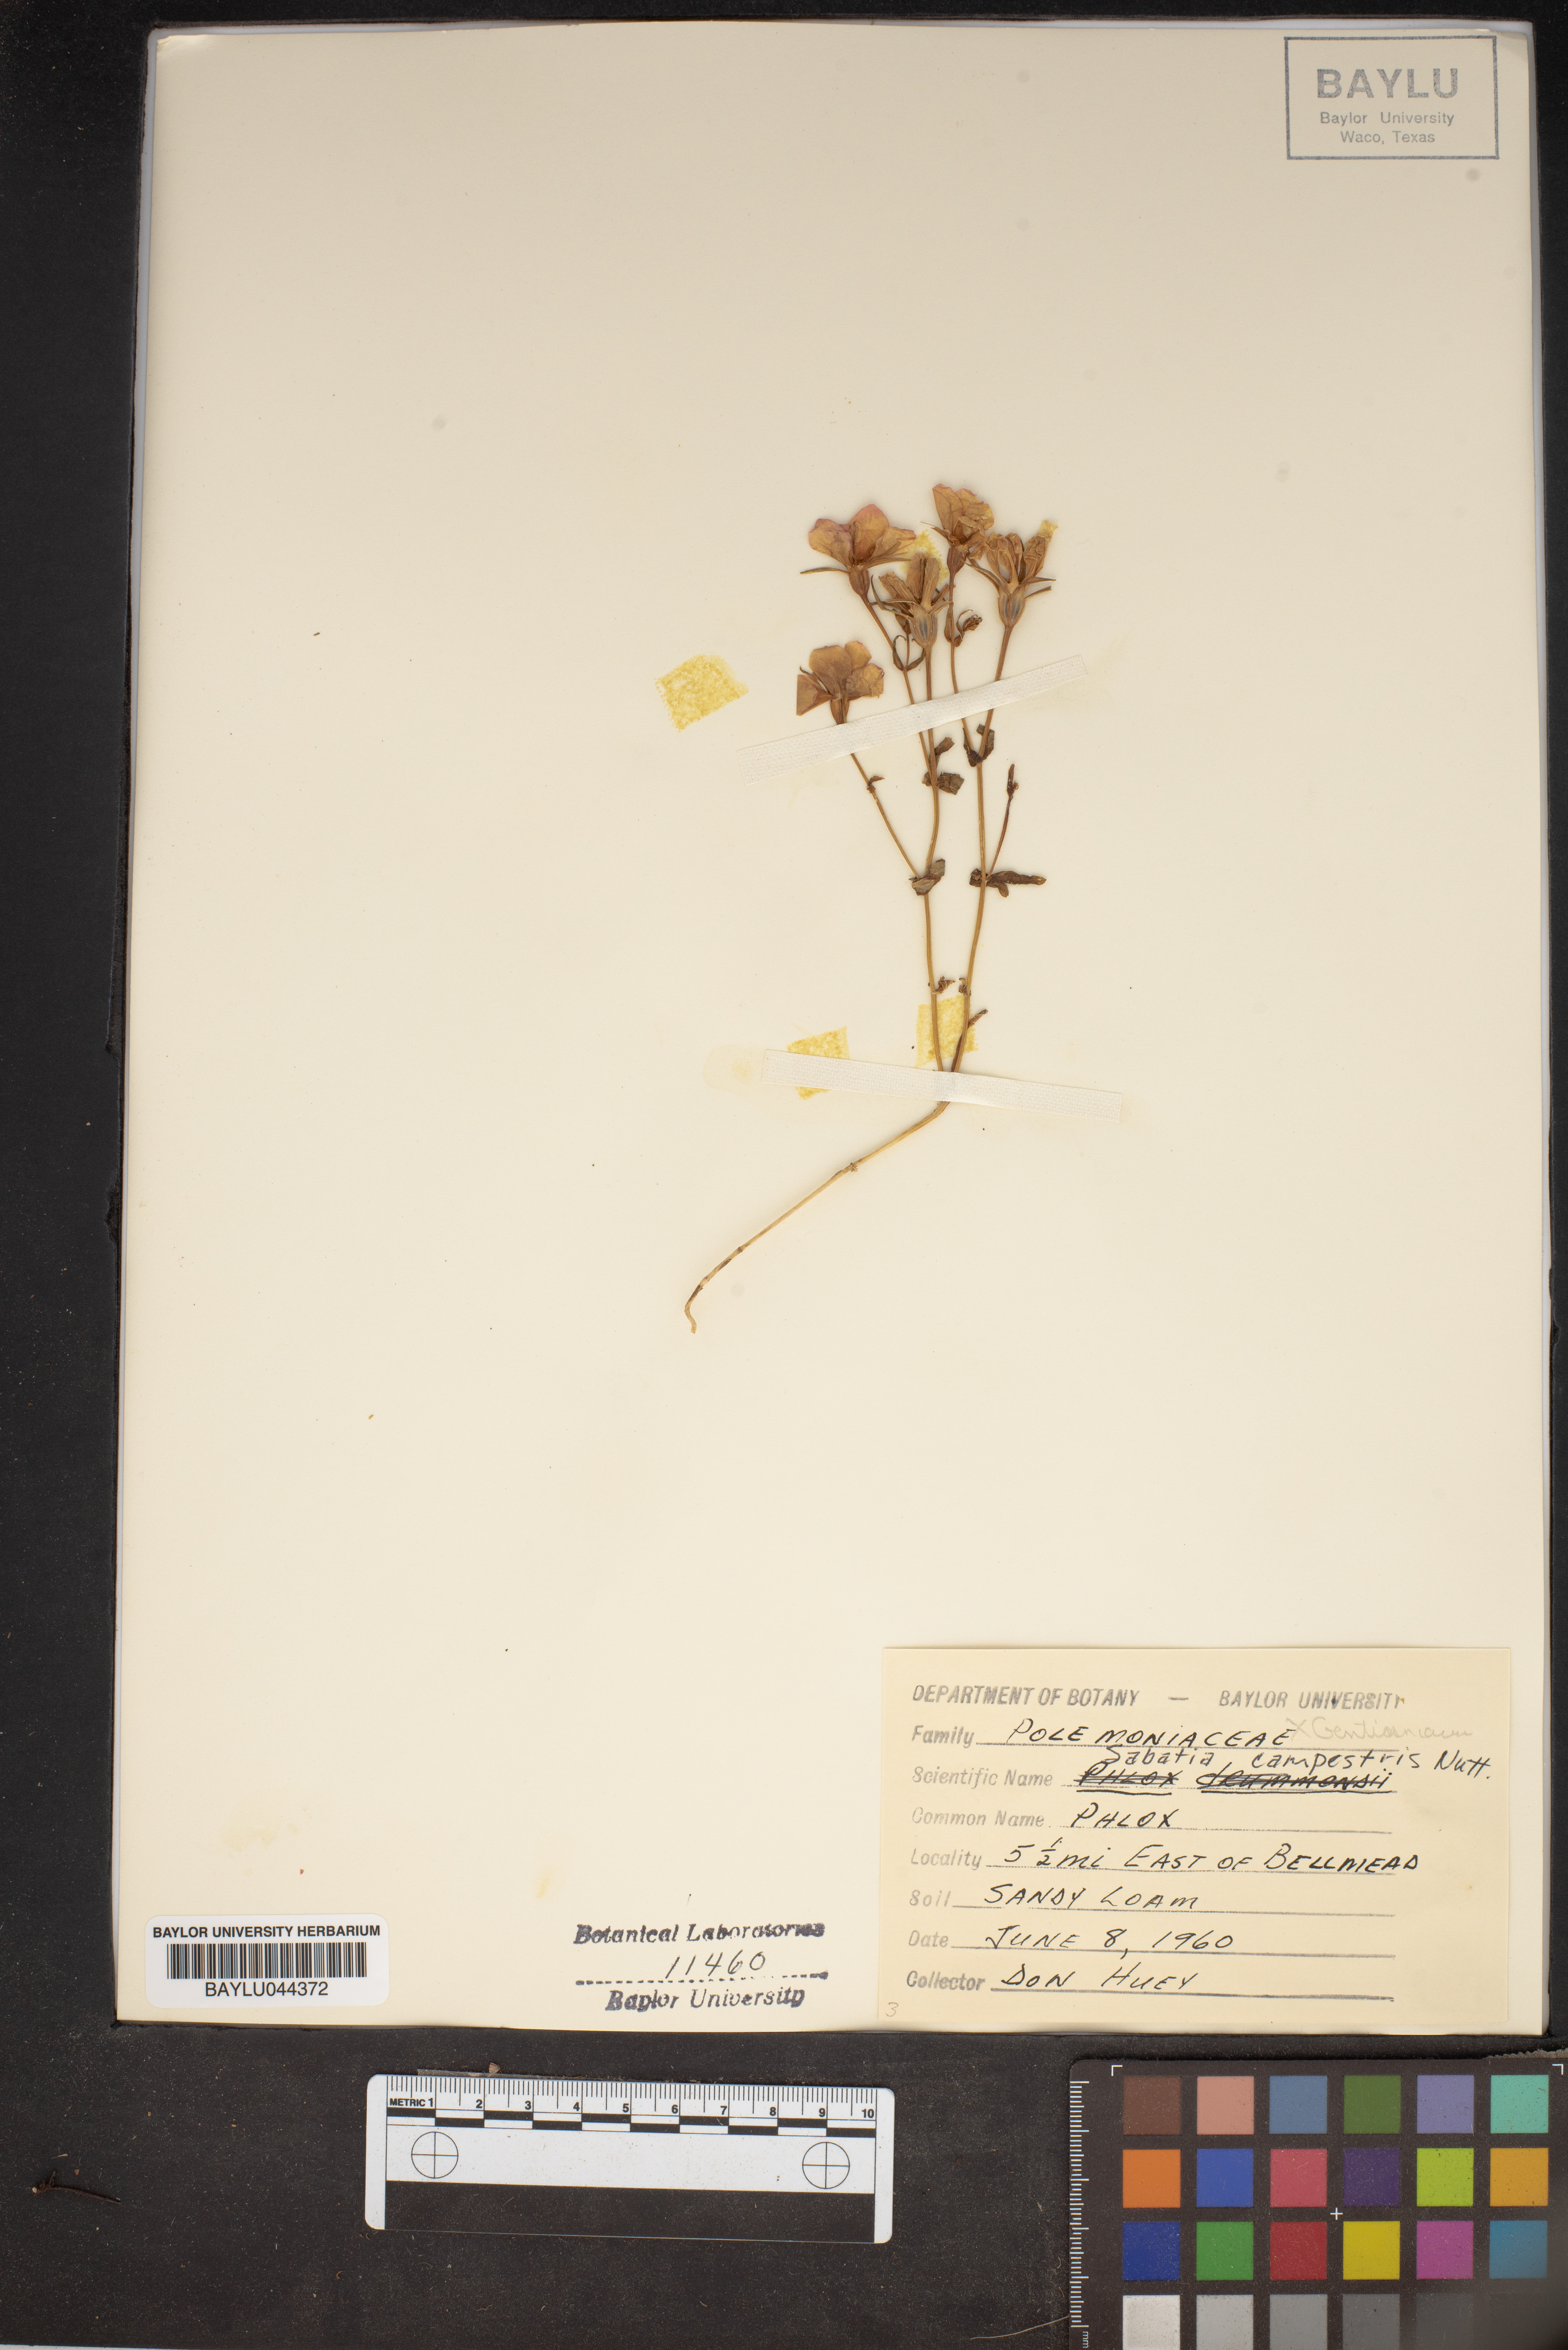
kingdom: Plantae
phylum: Tracheophyta
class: Magnoliopsida
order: Gentianales
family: Gentianaceae
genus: Sabatia
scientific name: Sabatia campestris
